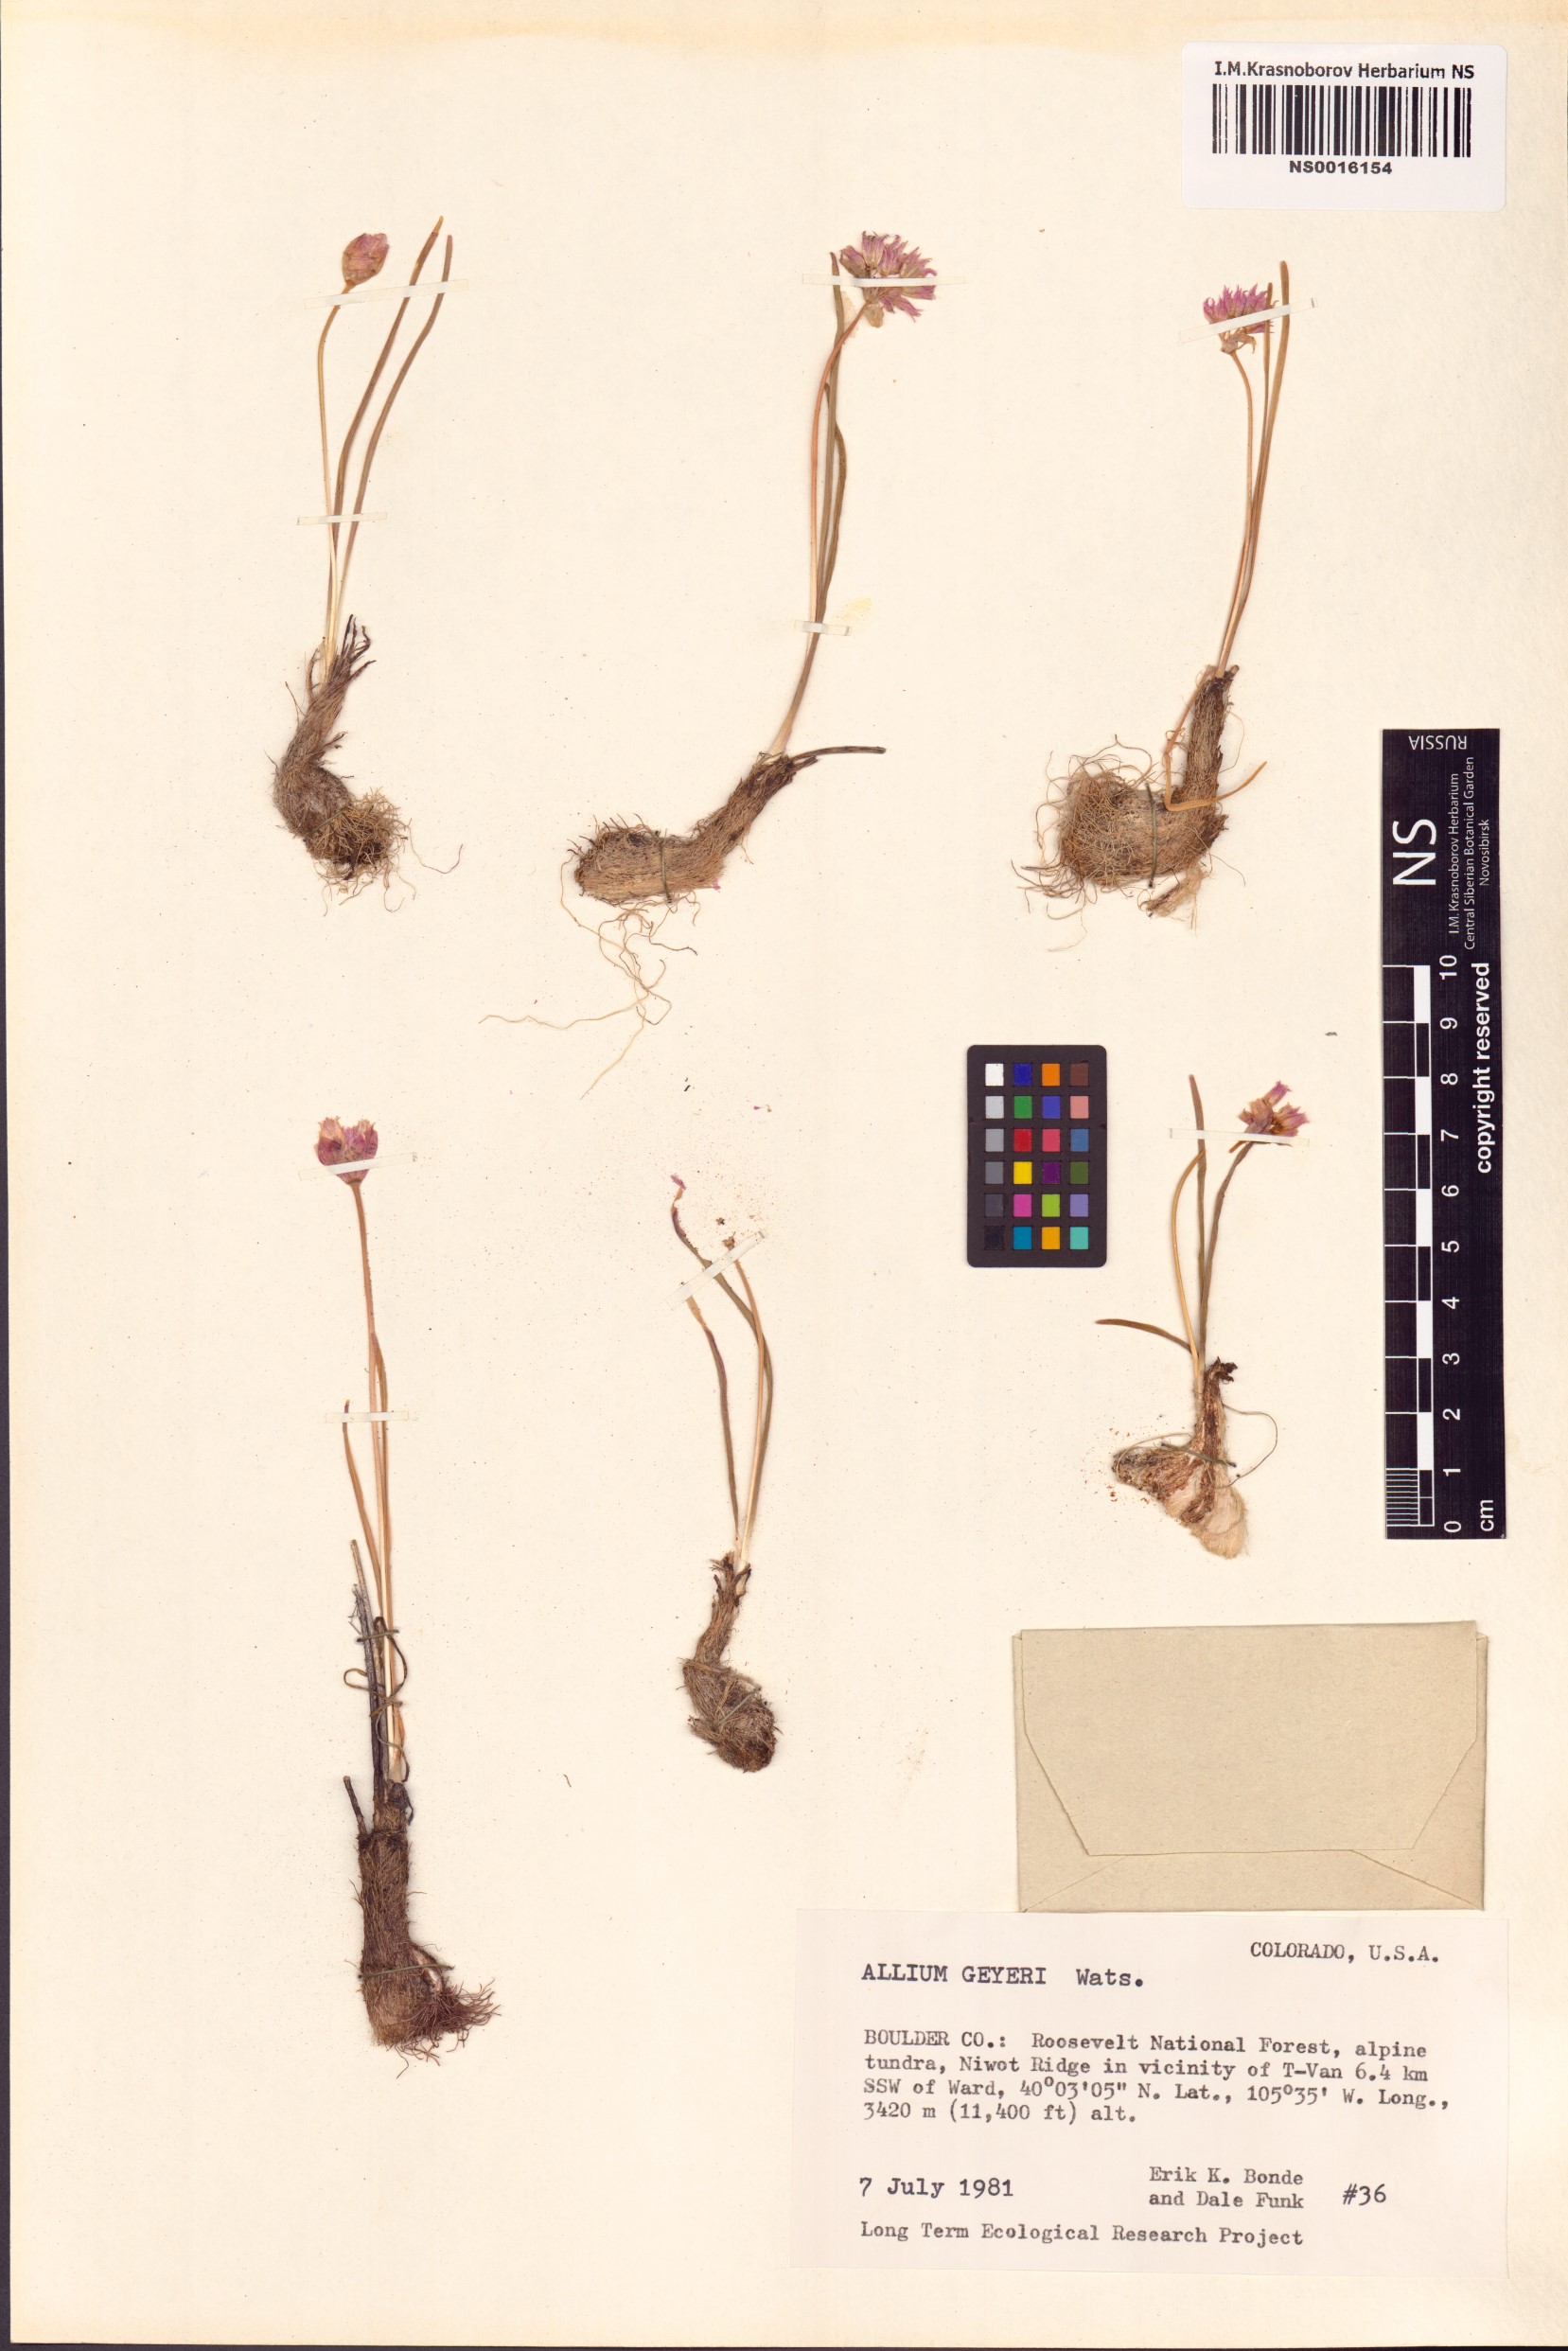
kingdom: Plantae
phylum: Tracheophyta
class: Liliopsida
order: Asparagales
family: Amaryllidaceae
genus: Allium
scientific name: Allium geyeri
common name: Geyer's onion
